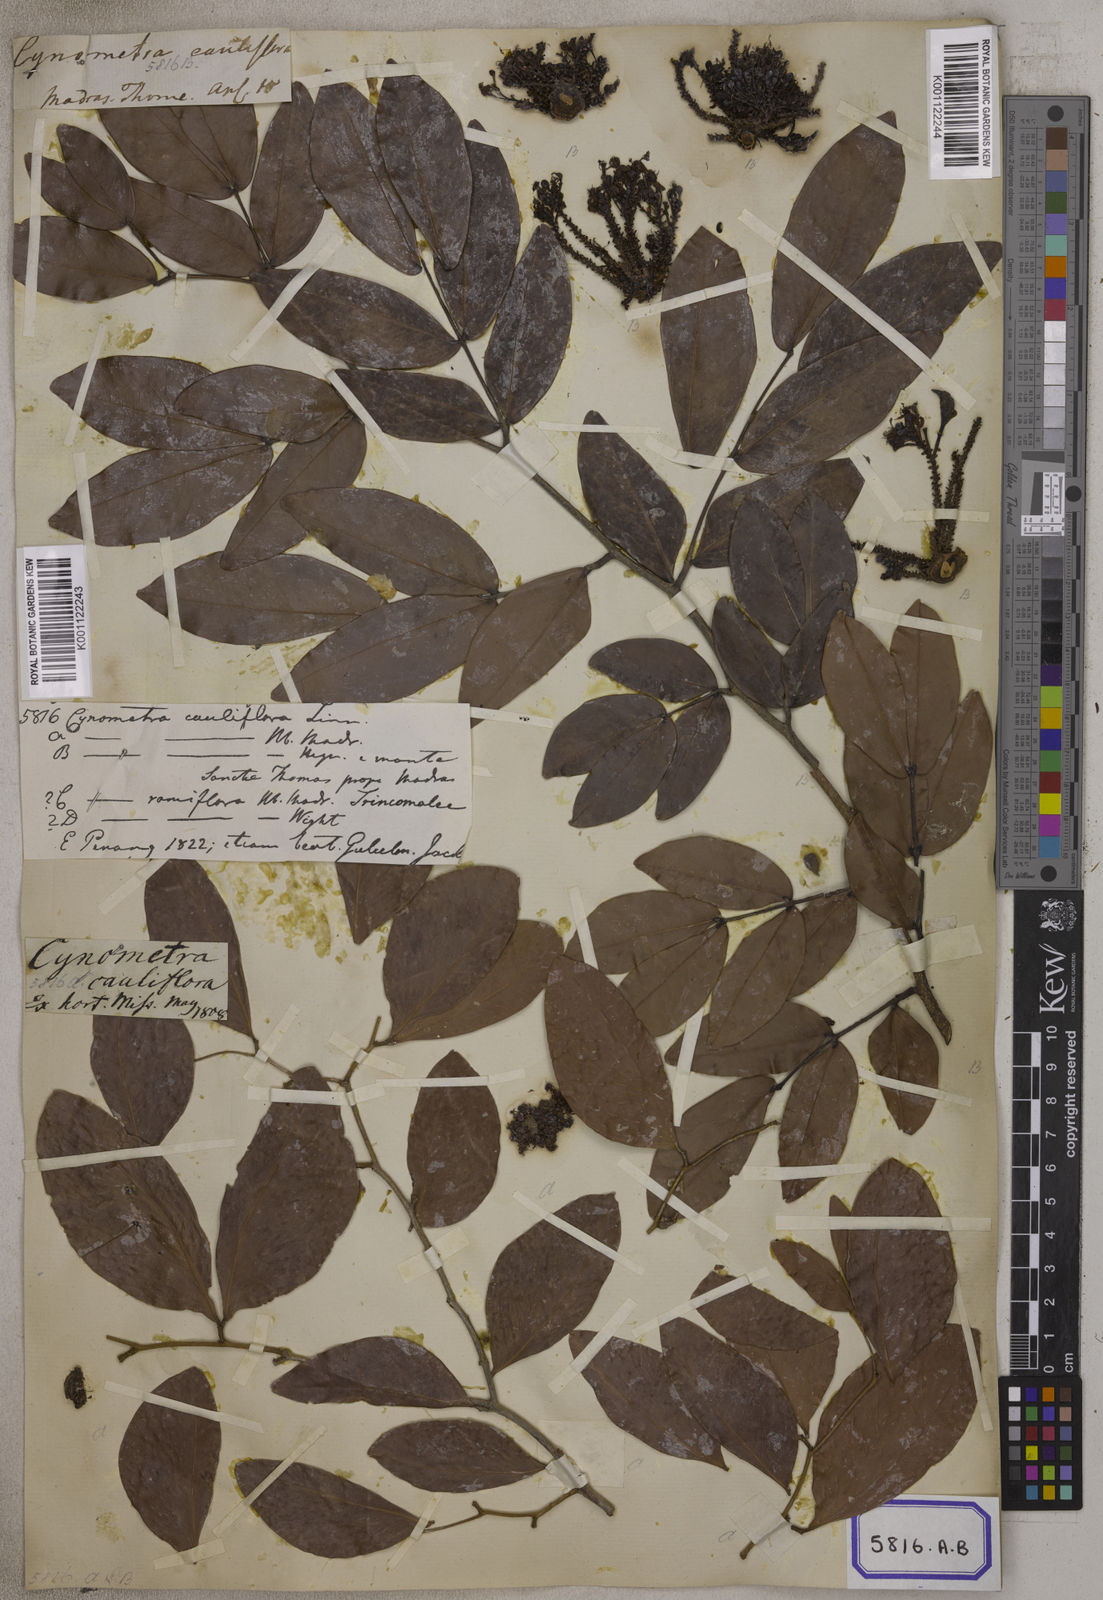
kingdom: Plantae
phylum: Tracheophyta
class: Magnoliopsida
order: Fabales
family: Fabaceae
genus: Cynometra
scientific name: Cynometra cauliflora
